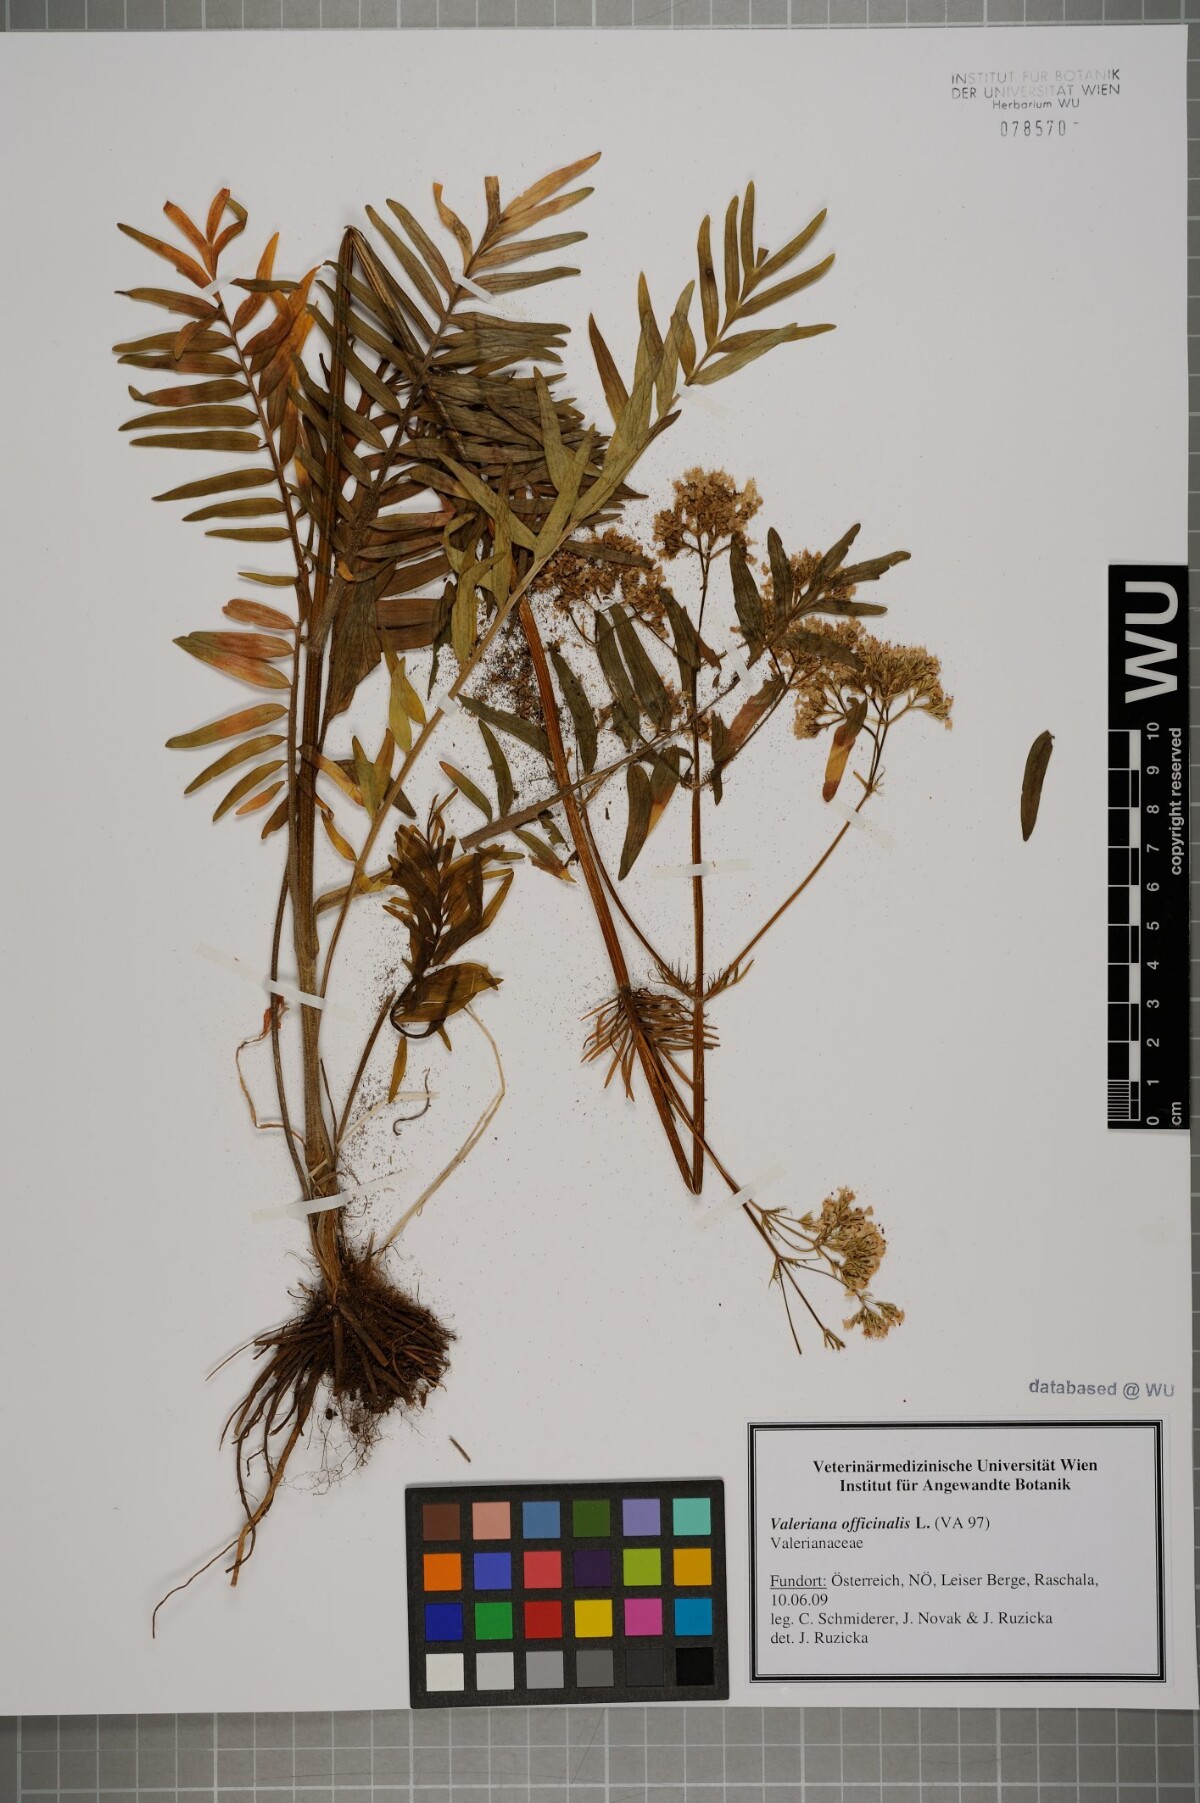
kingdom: Plantae
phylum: Tracheophyta
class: Magnoliopsida
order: Dipsacales
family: Caprifoliaceae
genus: Valeriana
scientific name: Valeriana officinalis
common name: Common valerian
